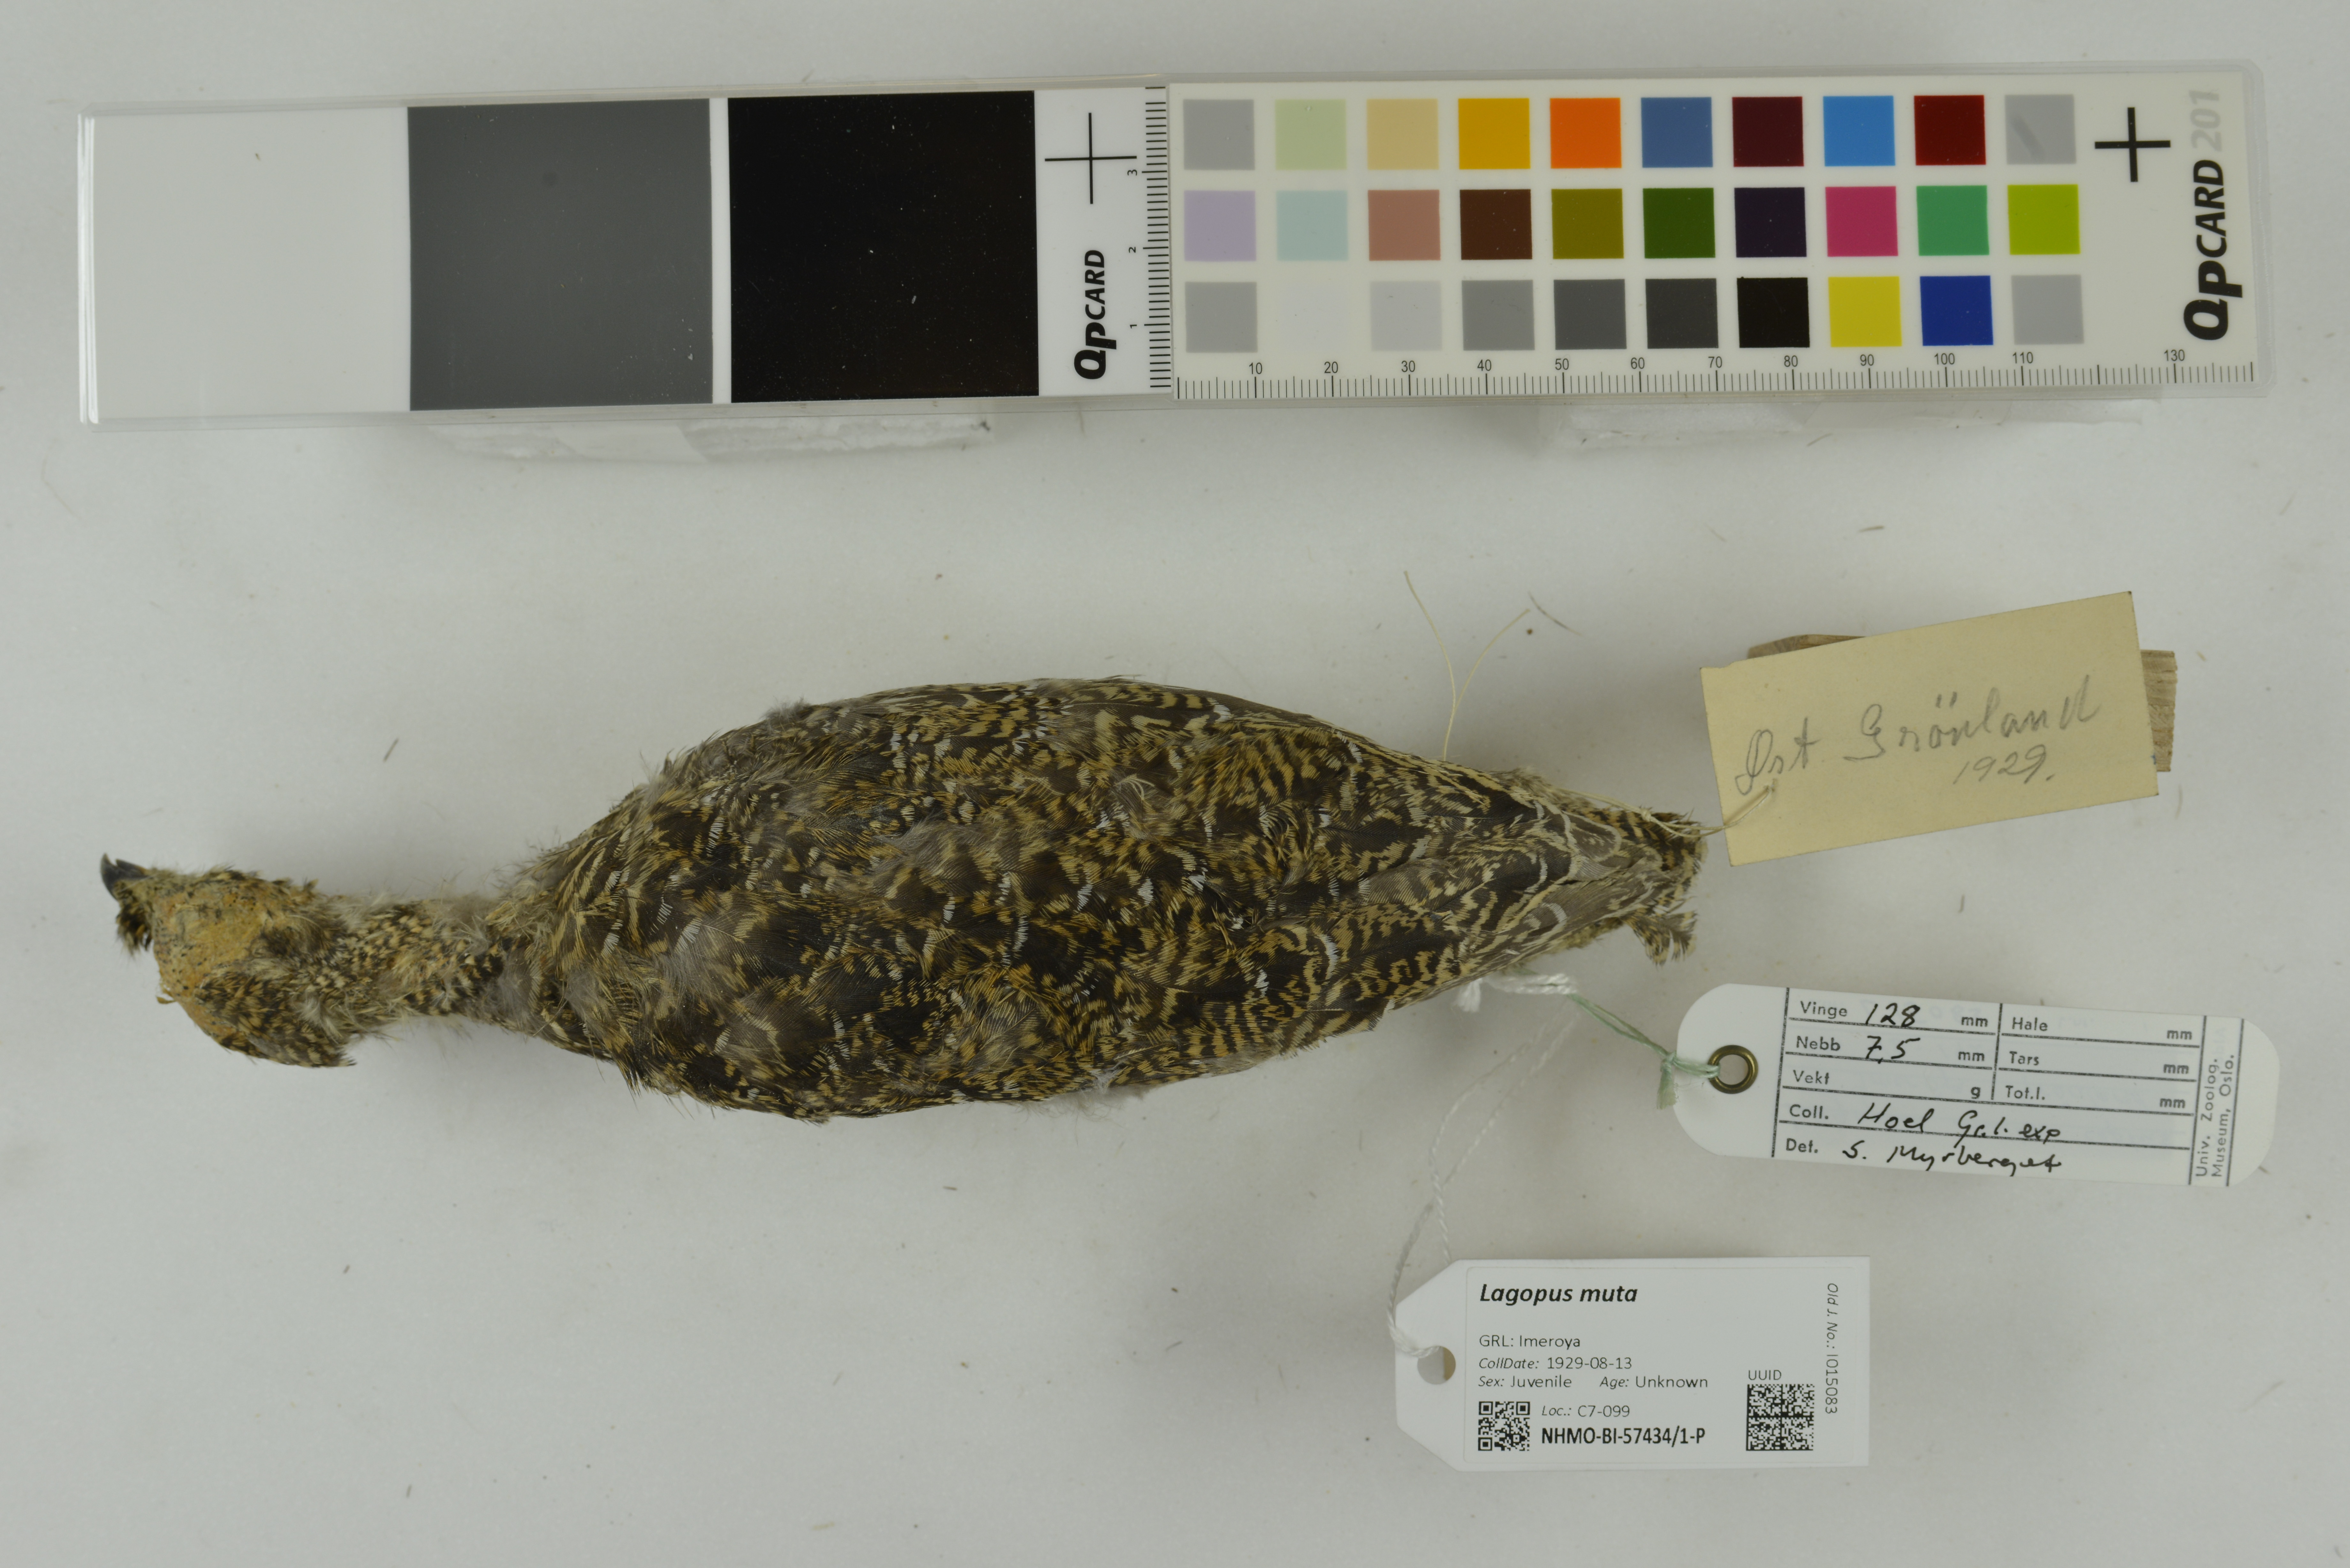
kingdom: Animalia
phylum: Chordata
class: Aves
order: Galliformes
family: Phasianidae
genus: Lagopus
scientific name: Lagopus muta
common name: Rock ptarmigan
